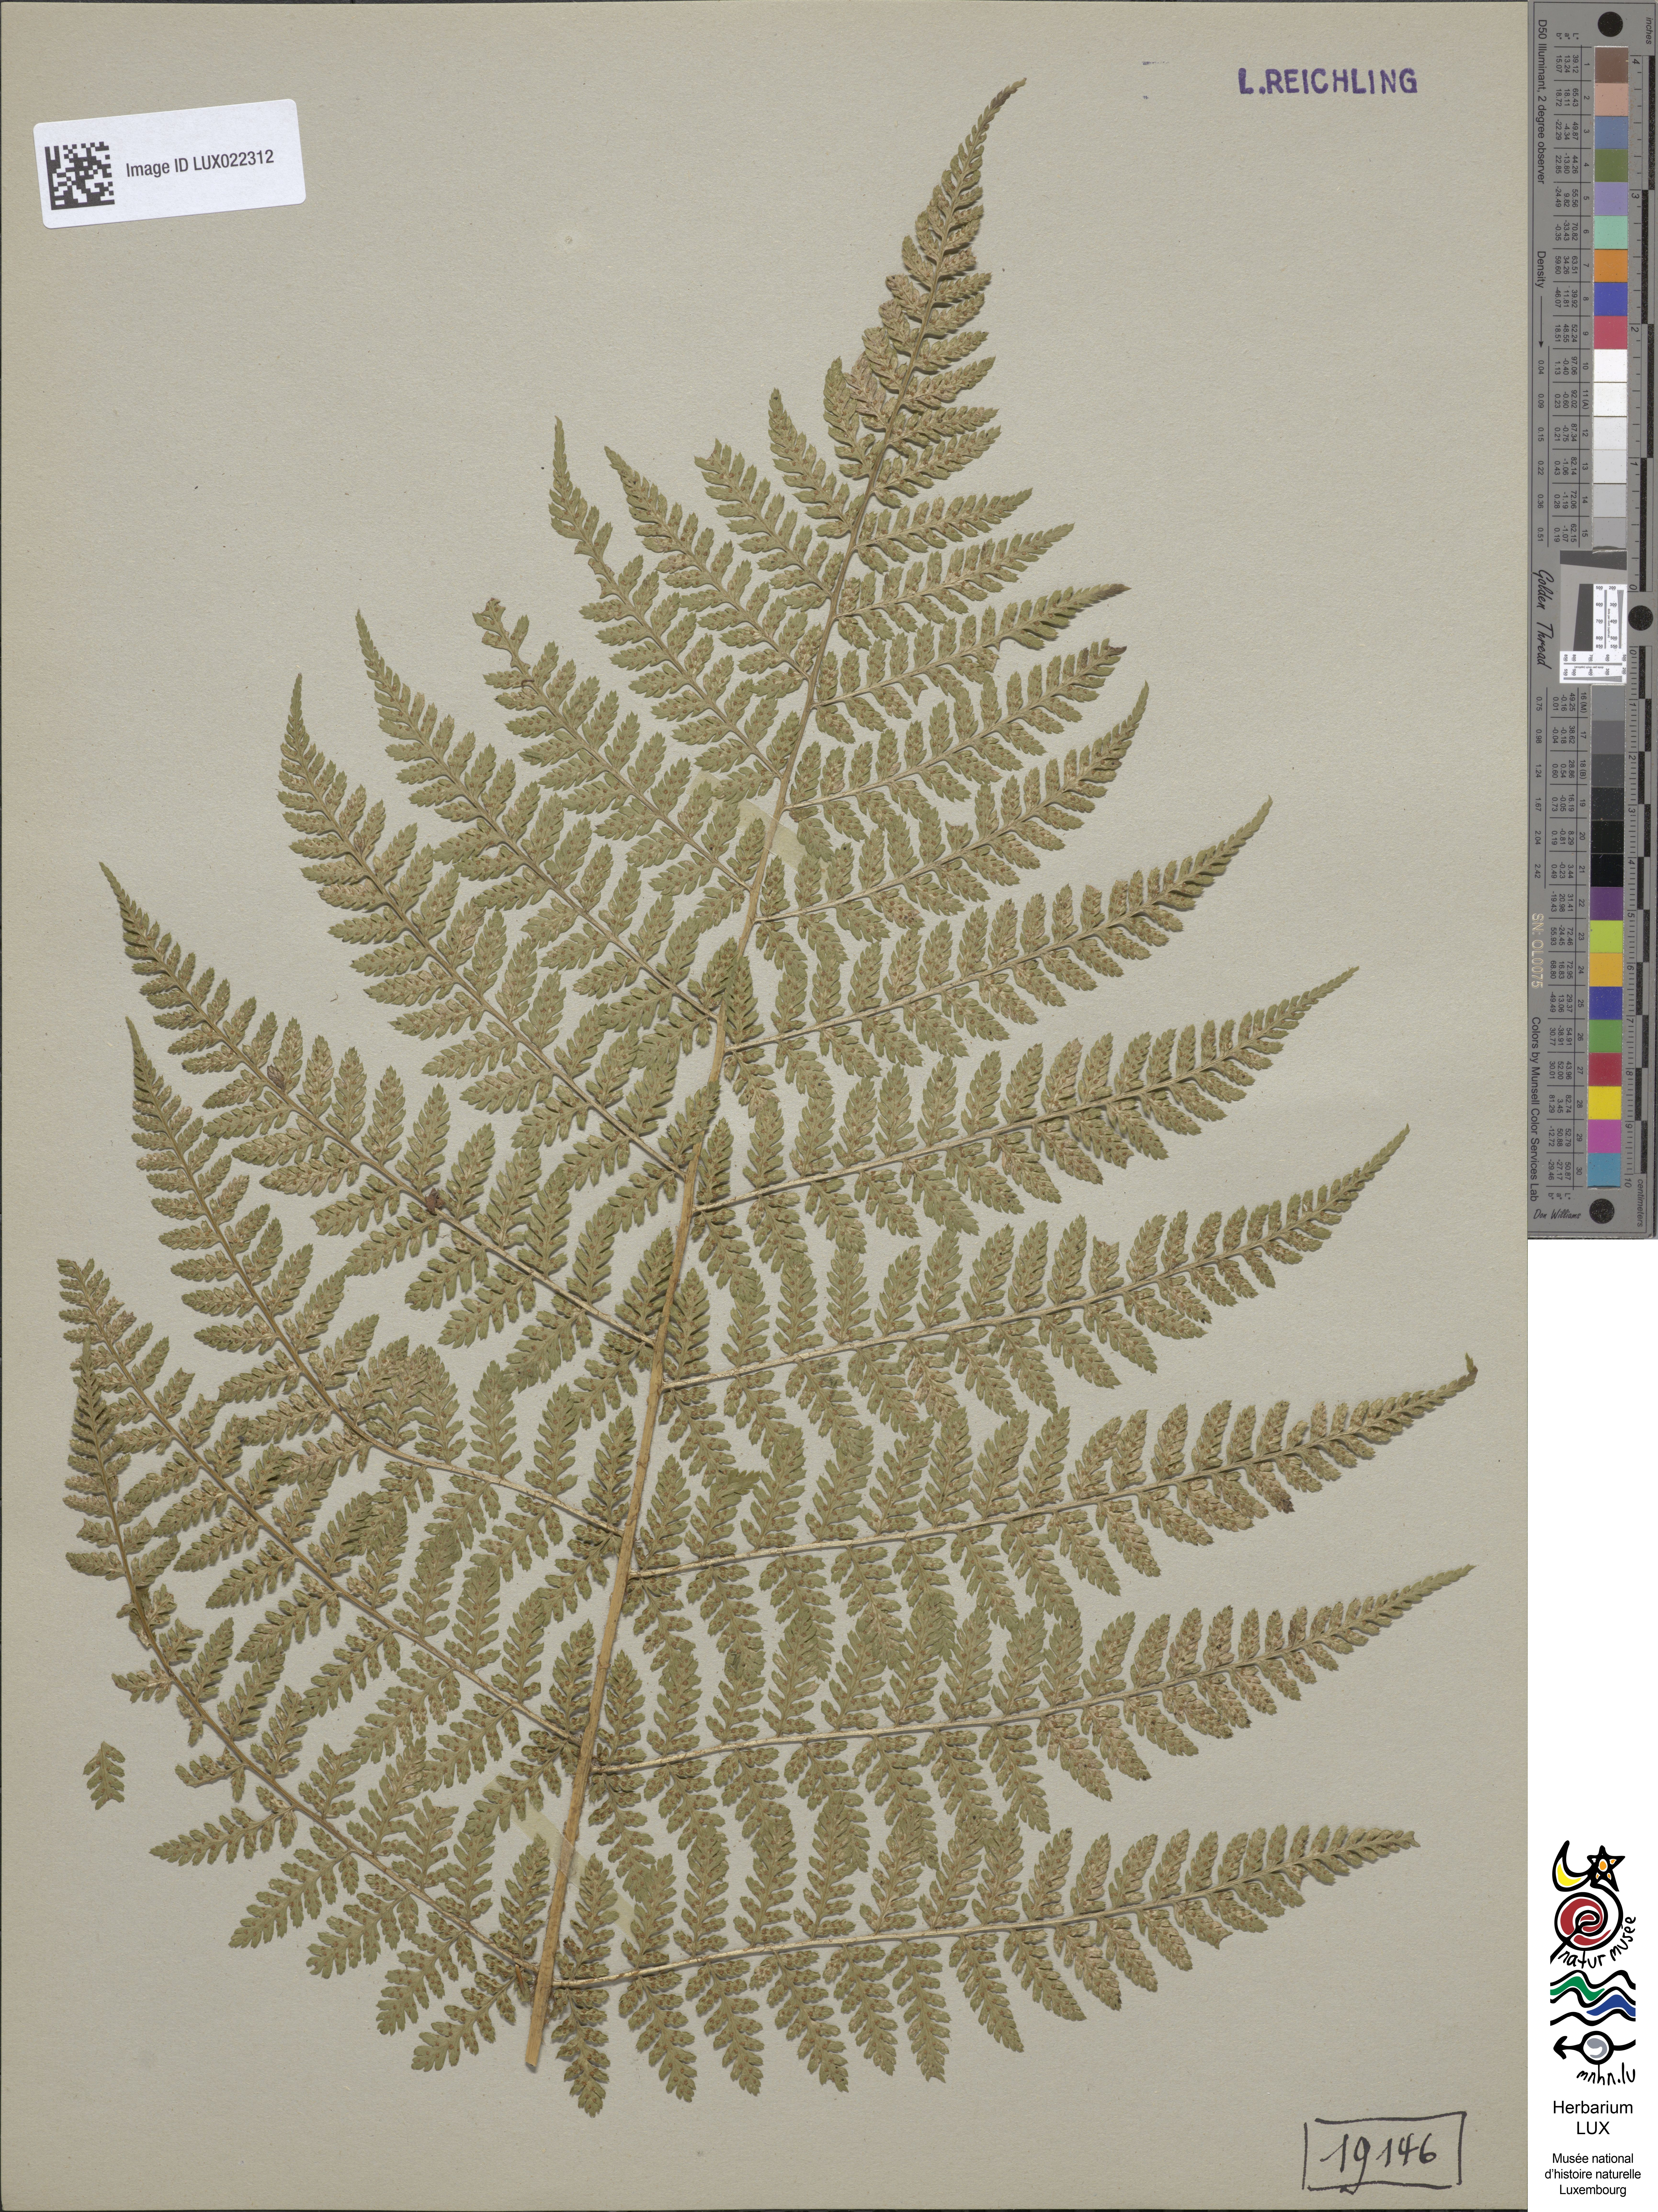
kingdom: Plantae
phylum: Tracheophyta
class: Polypodiopsida
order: Polypodiales
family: Dryopteridaceae
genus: Dryopteris
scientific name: Dryopteris dilatata
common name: Broad buckler-fern
